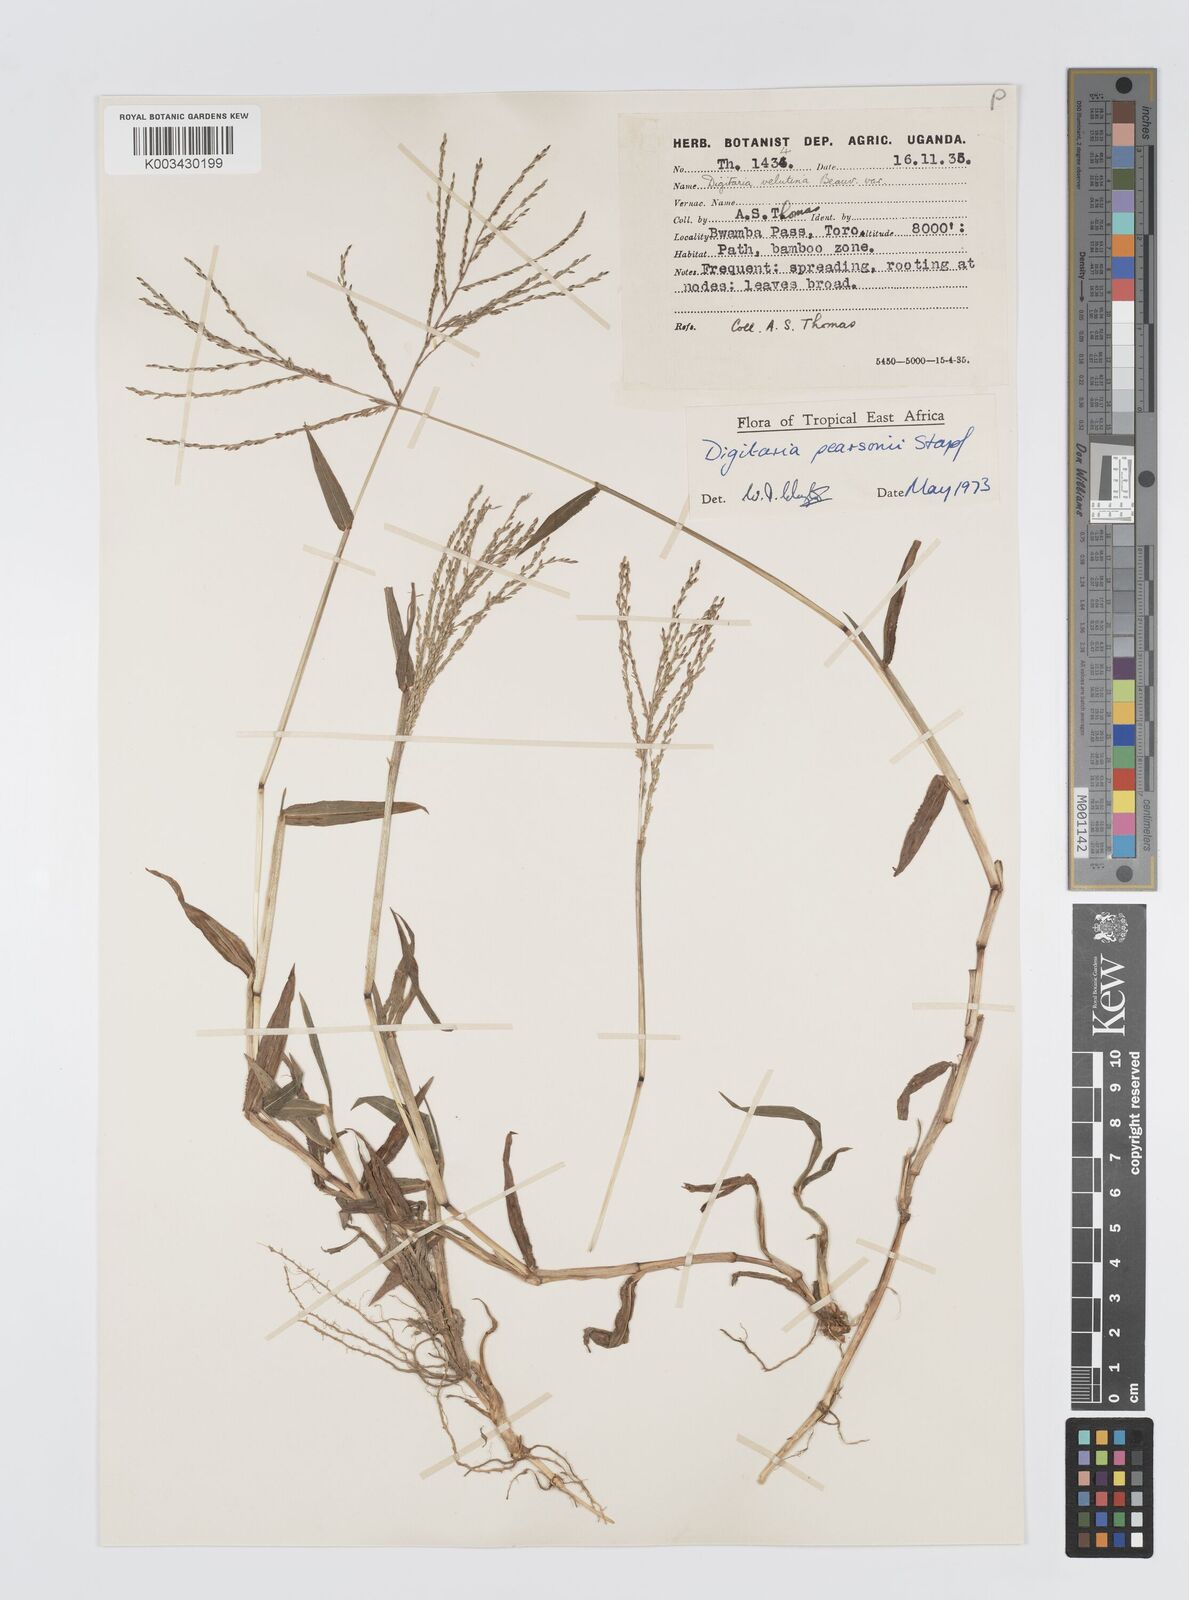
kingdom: Plantae
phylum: Tracheophyta
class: Liliopsida
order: Poales
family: Poaceae
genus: Digitaria
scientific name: Digitaria pearsonii
